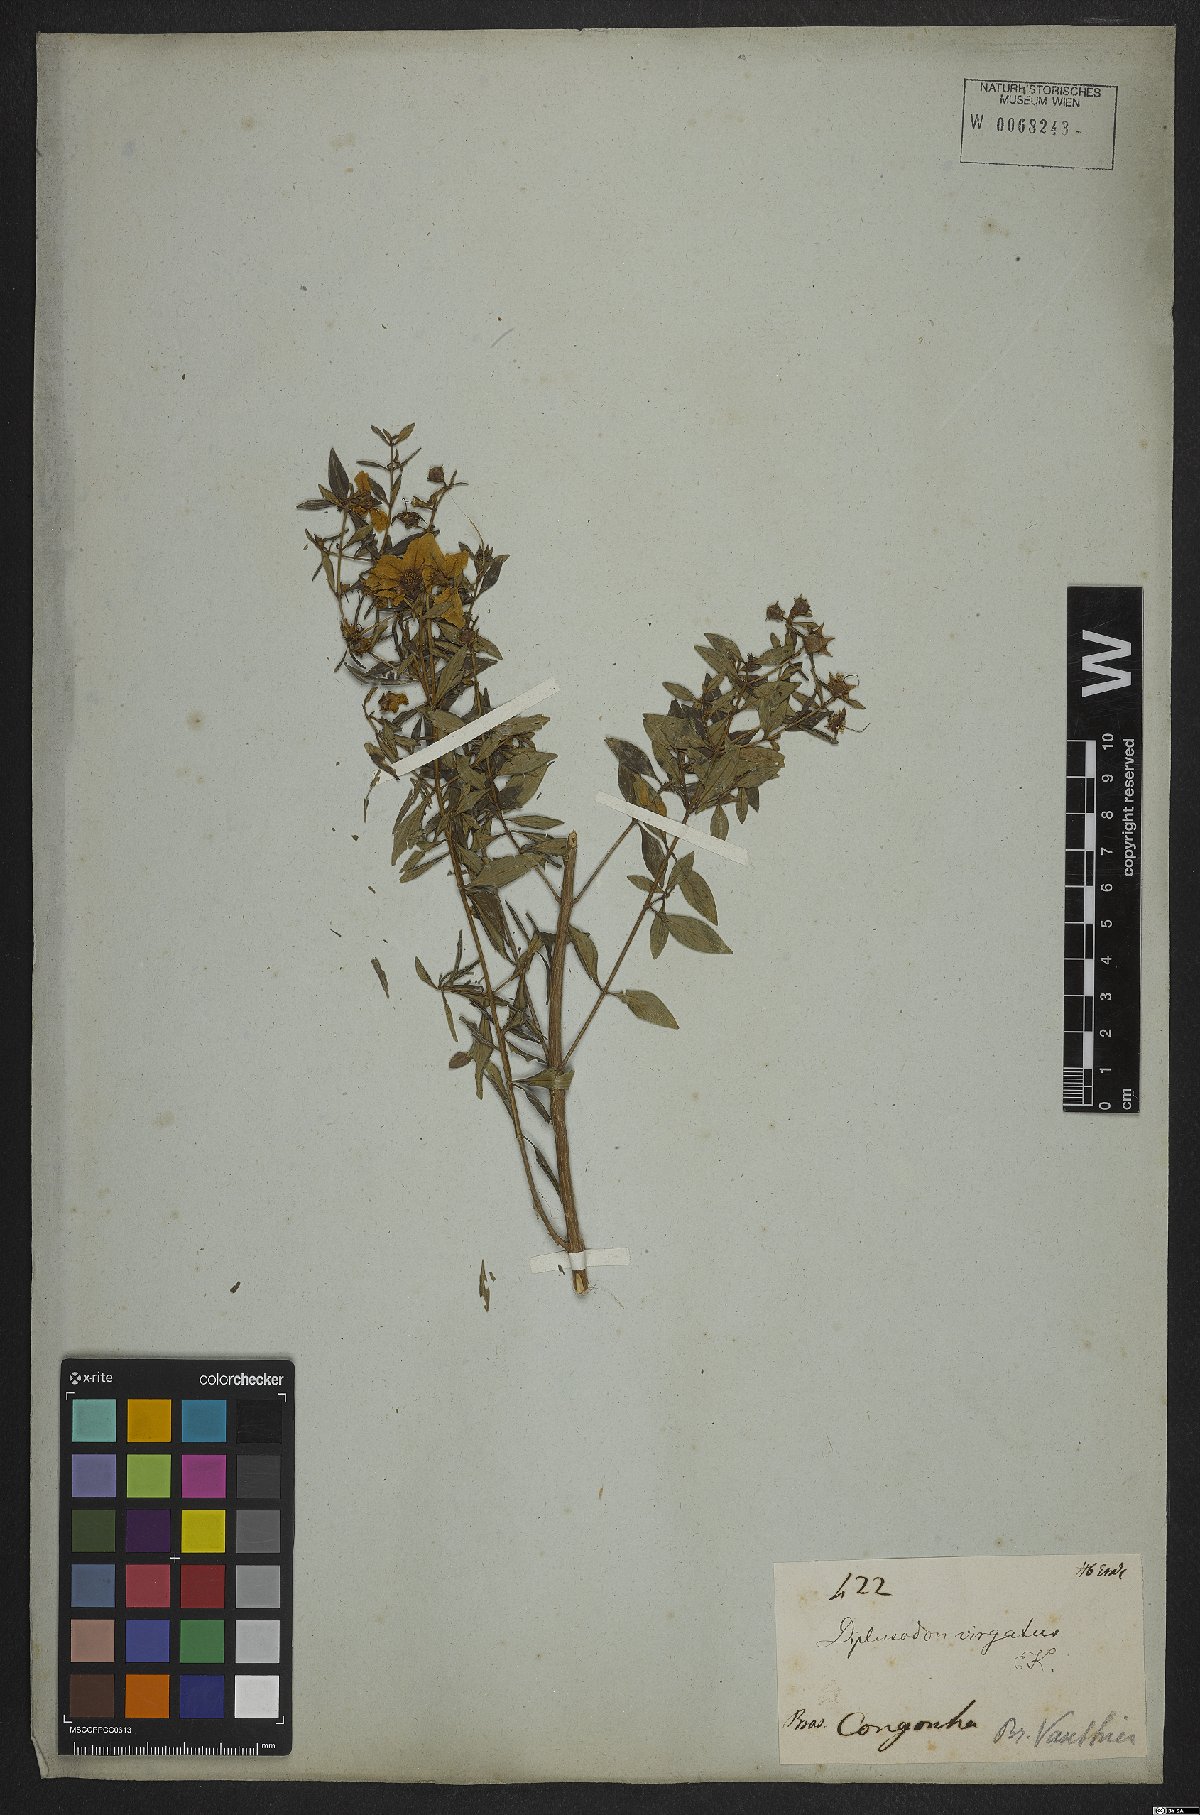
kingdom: Plantae
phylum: Tracheophyta
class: Magnoliopsida
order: Myrtales
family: Lythraceae
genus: Diplusodon
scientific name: Diplusodon virgatus
